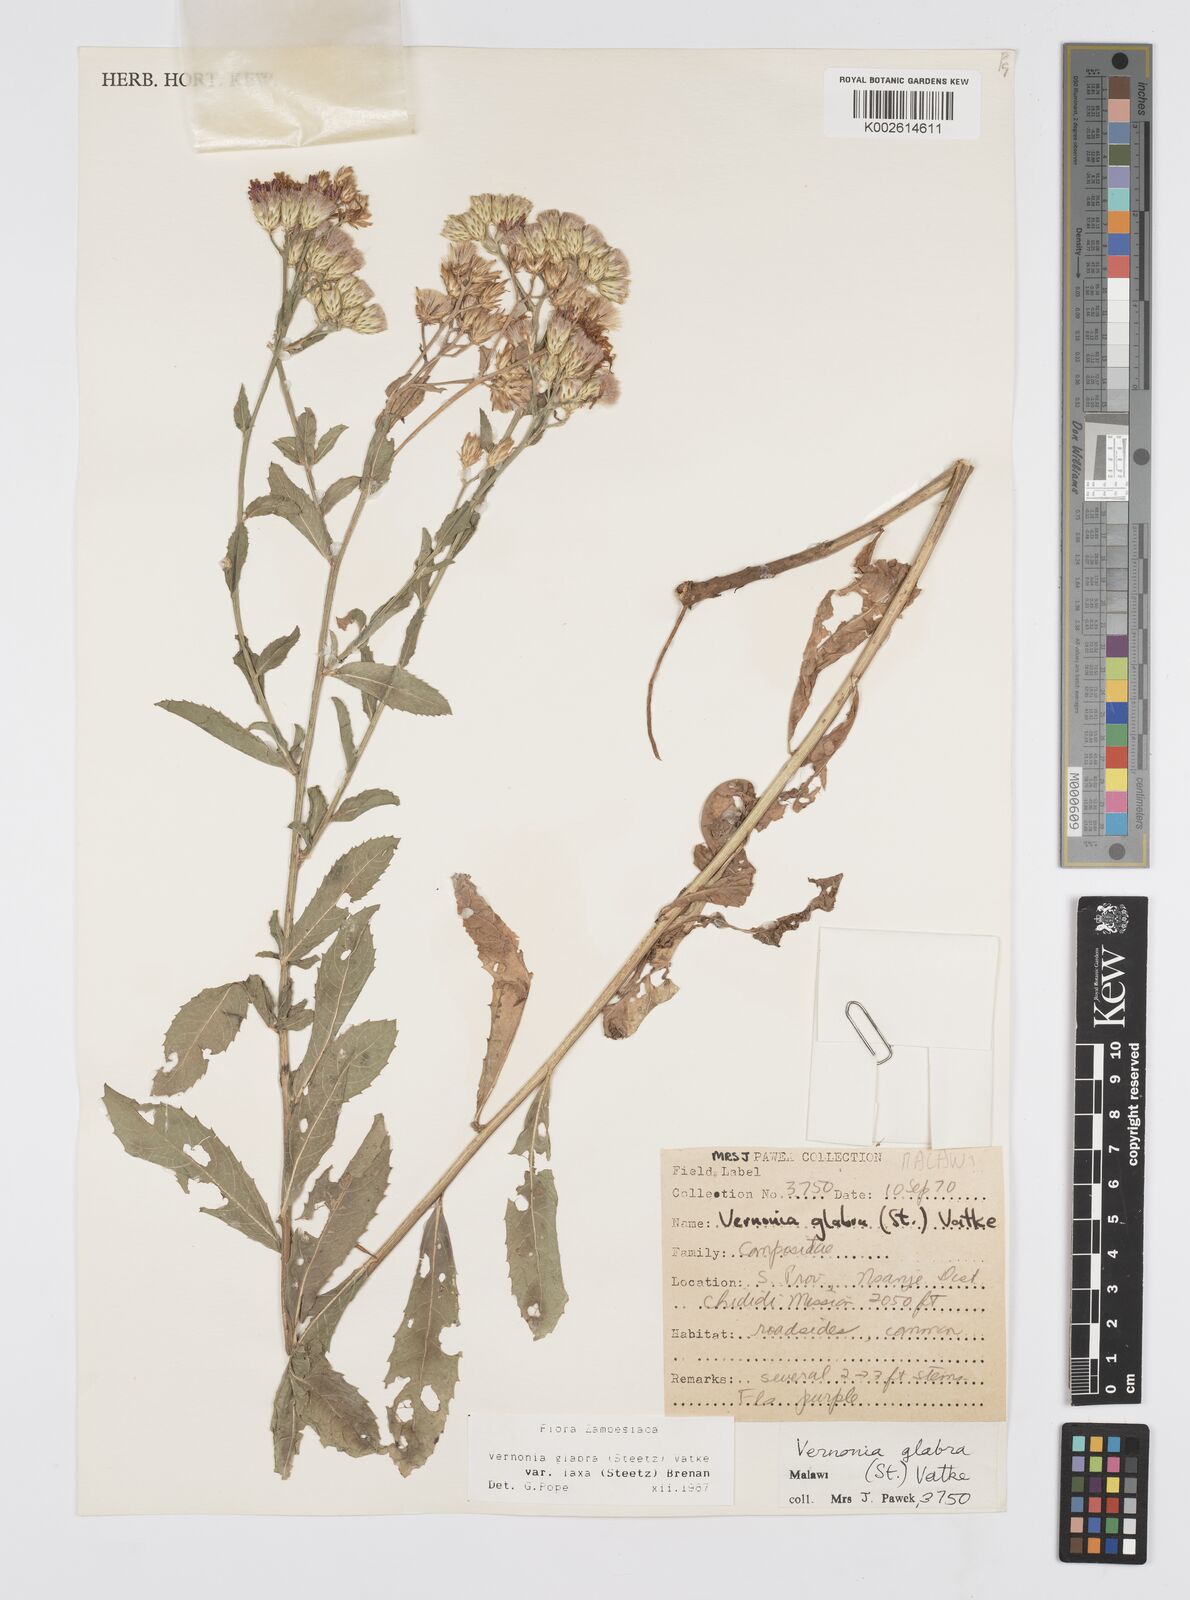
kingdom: Plantae
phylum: Tracheophyta
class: Magnoliopsida
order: Asterales
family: Asteraceae
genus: Linzia
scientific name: Linzia glabra
